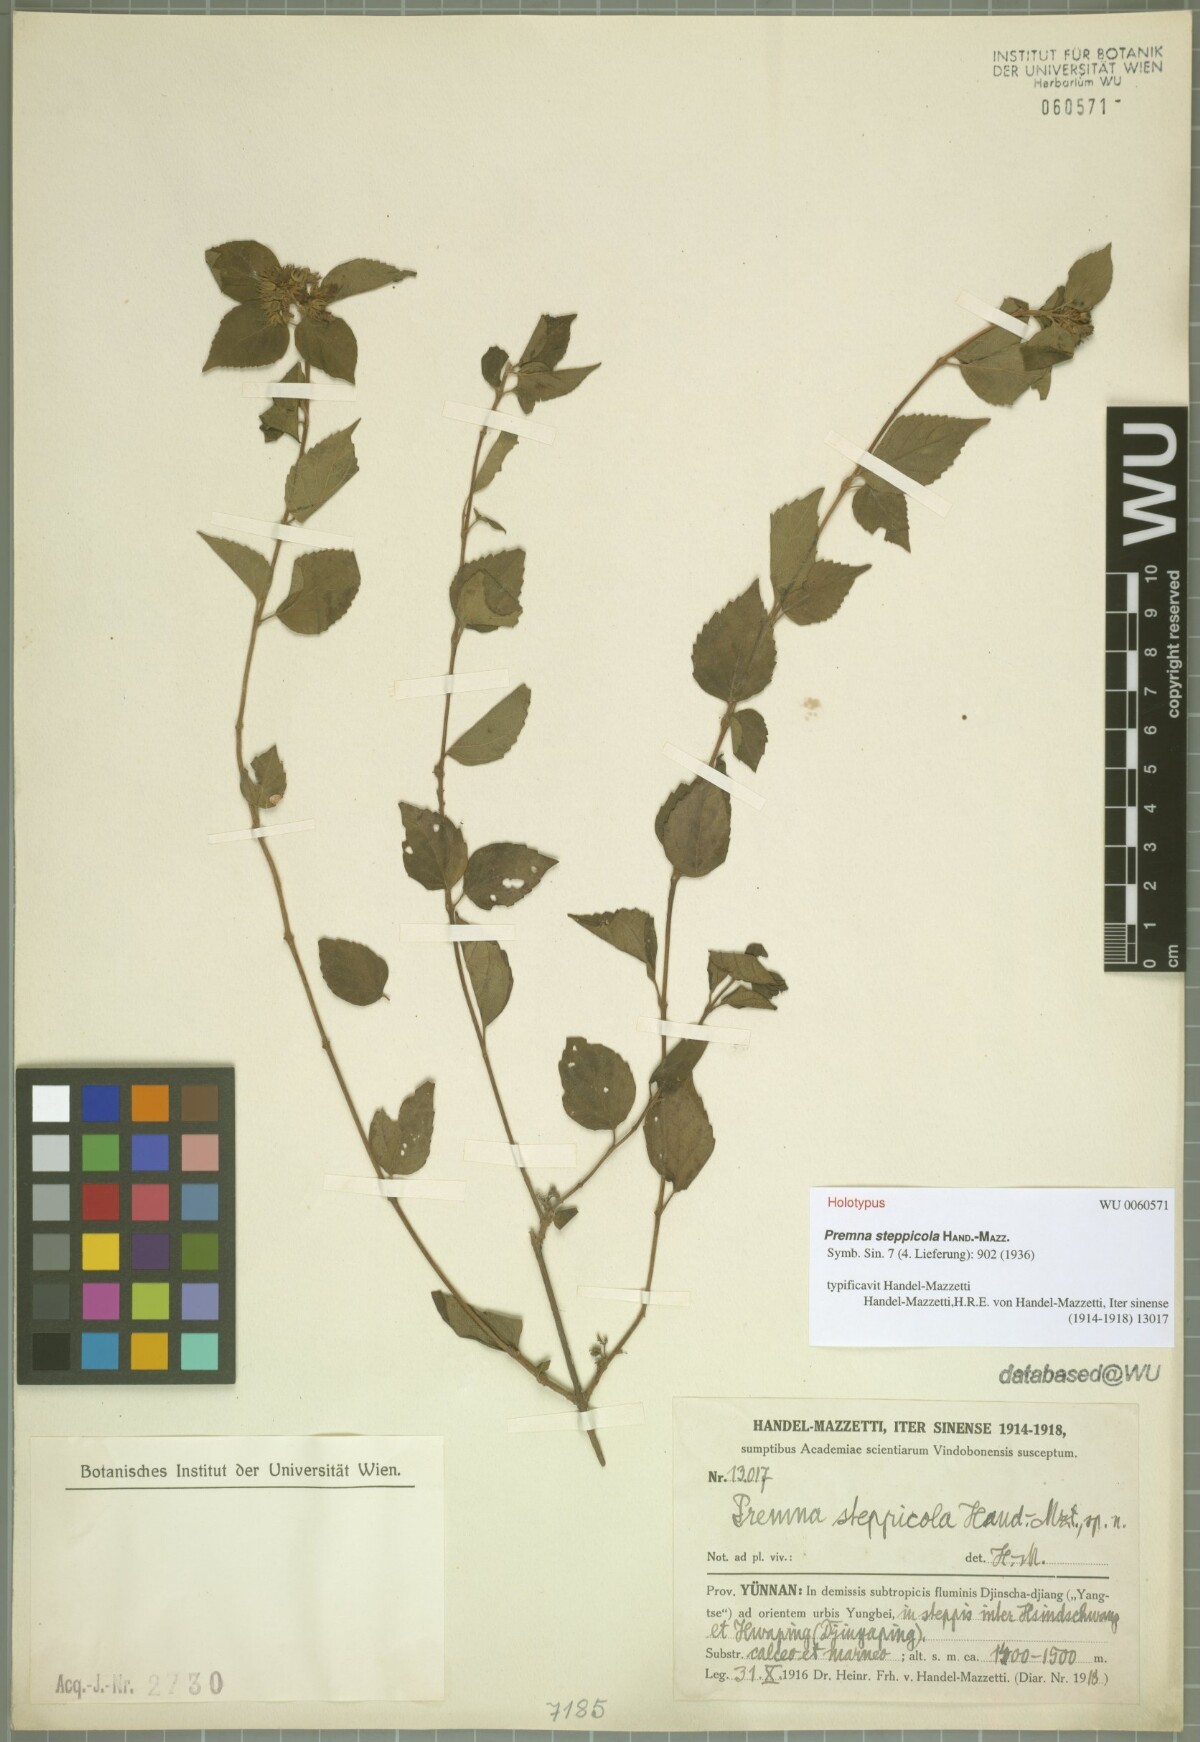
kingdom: Plantae
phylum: Tracheophyta
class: Magnoliopsida
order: Lamiales
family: Lamiaceae
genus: Premna
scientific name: Premna acutata
